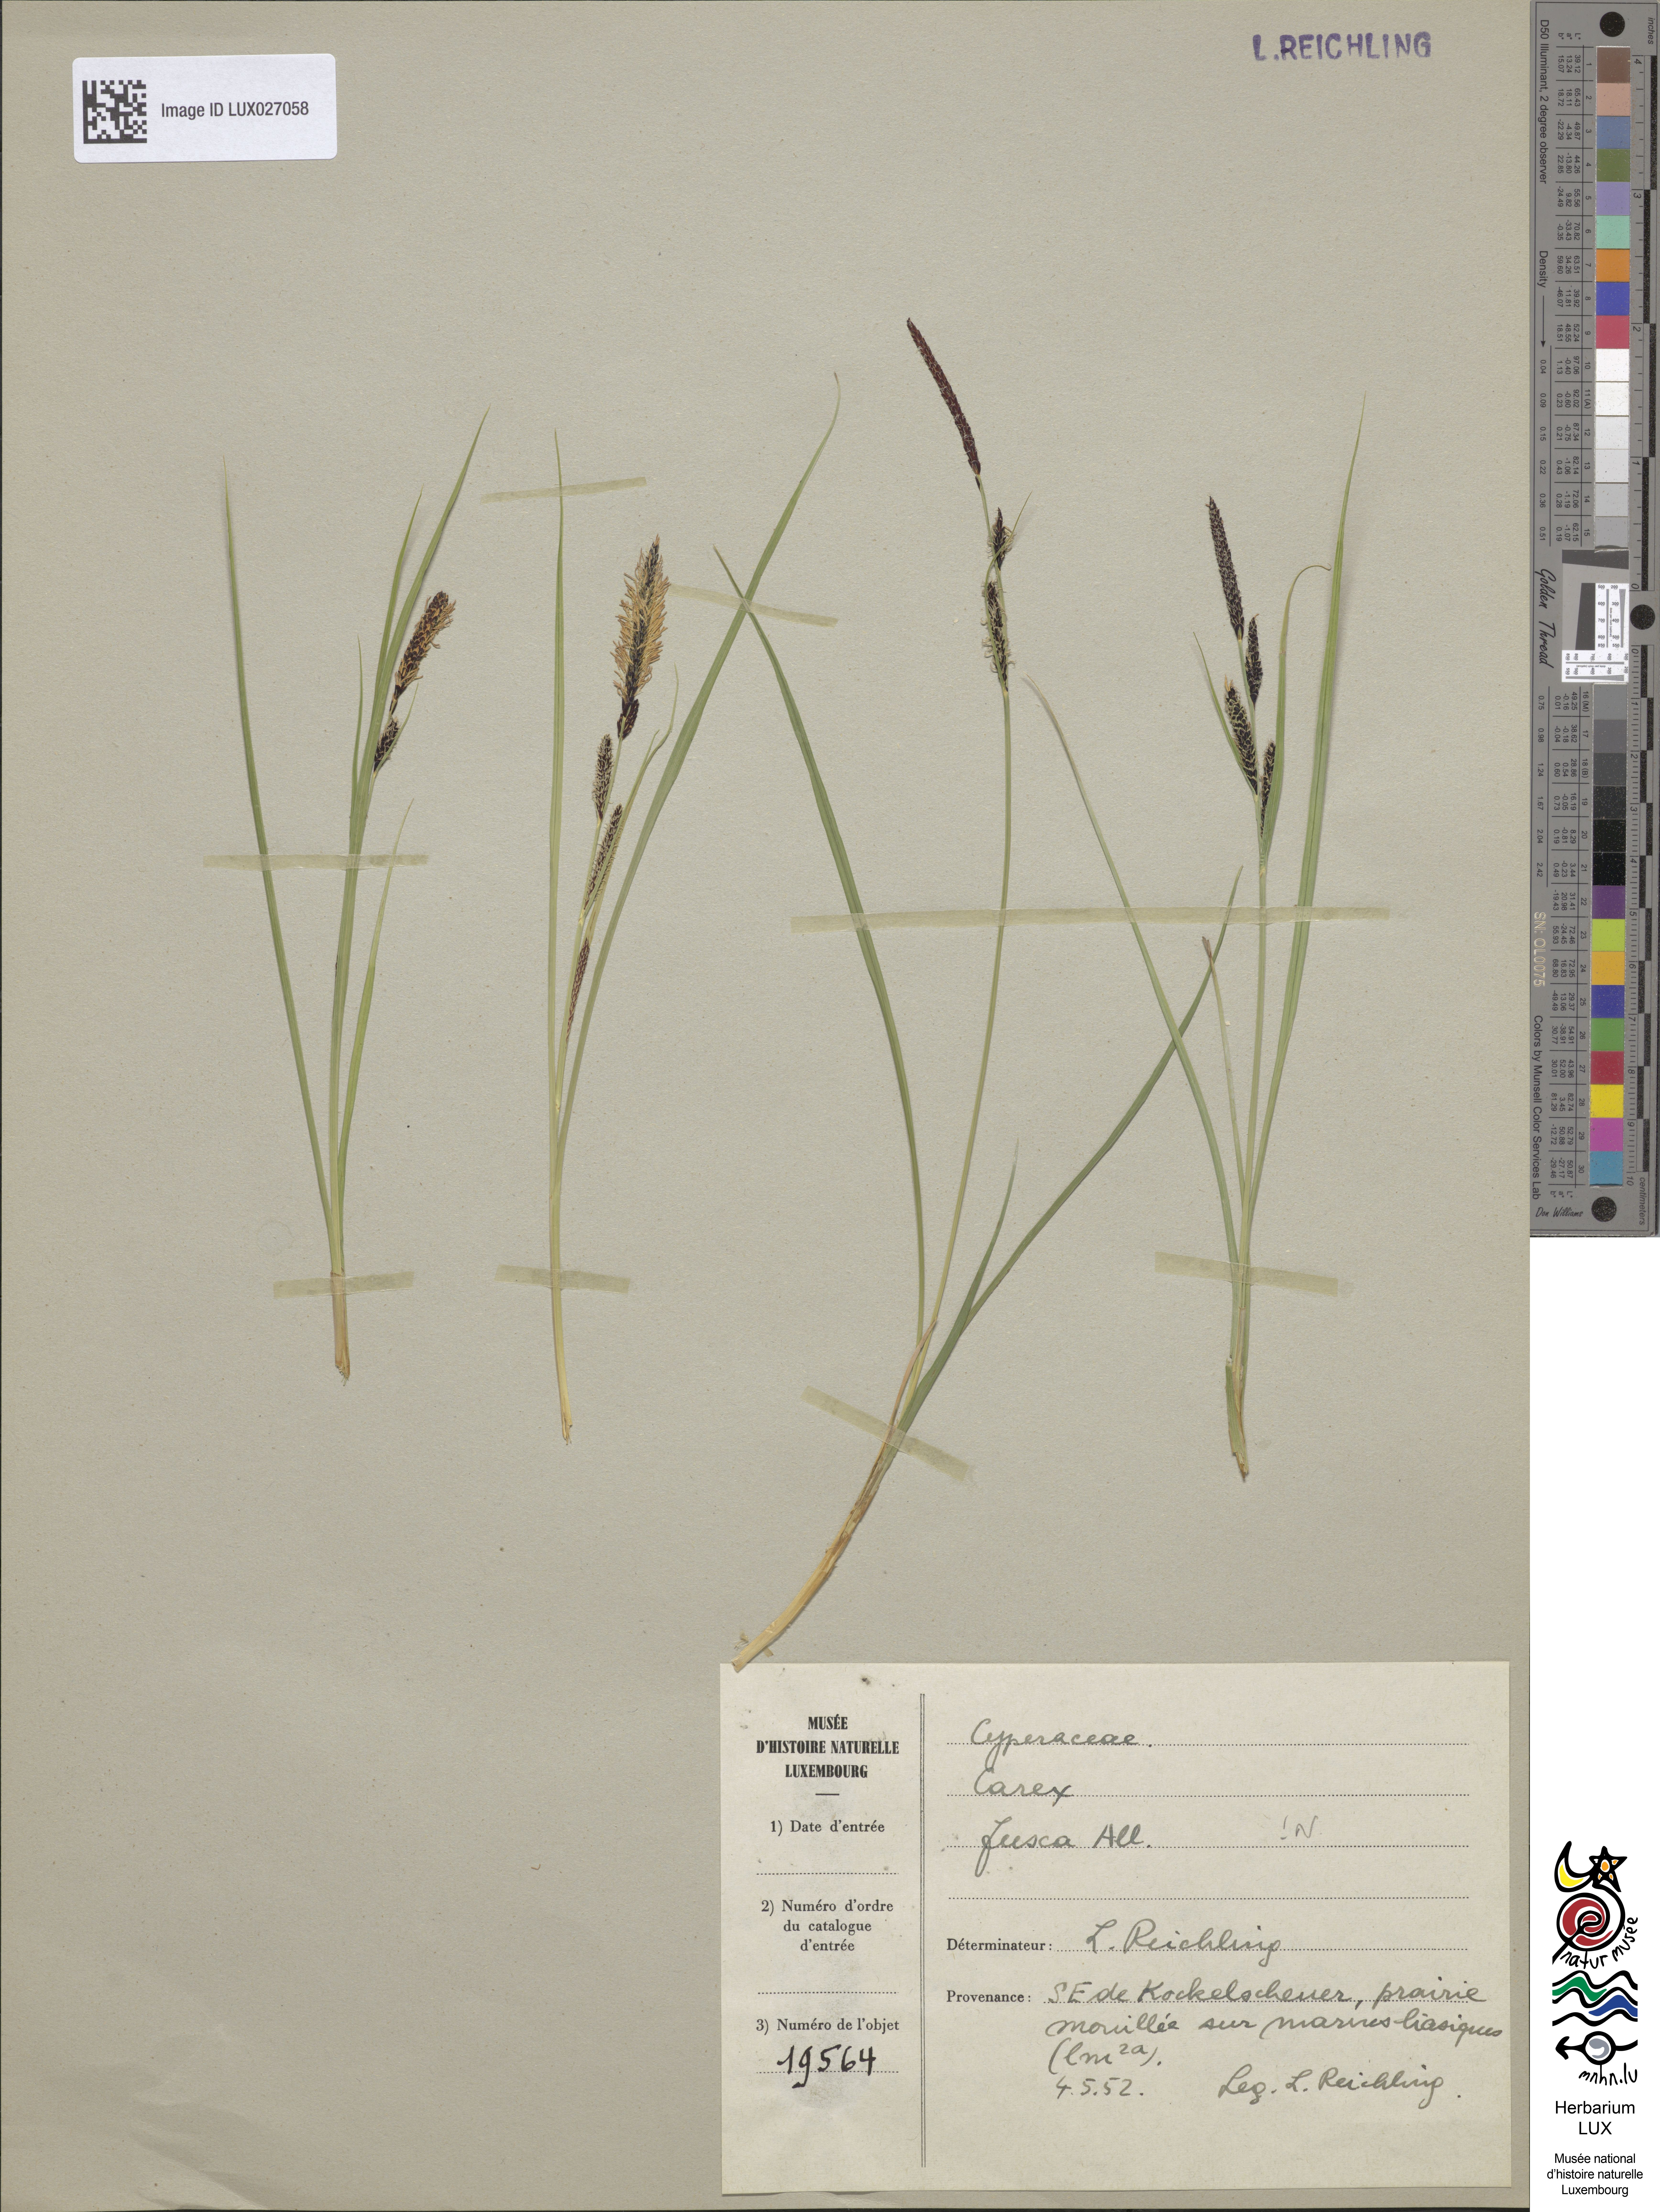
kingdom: Plantae
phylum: Tracheophyta
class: Liliopsida
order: Poales
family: Cyperaceae
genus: Carex
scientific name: Carex nigra
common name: Common sedge
